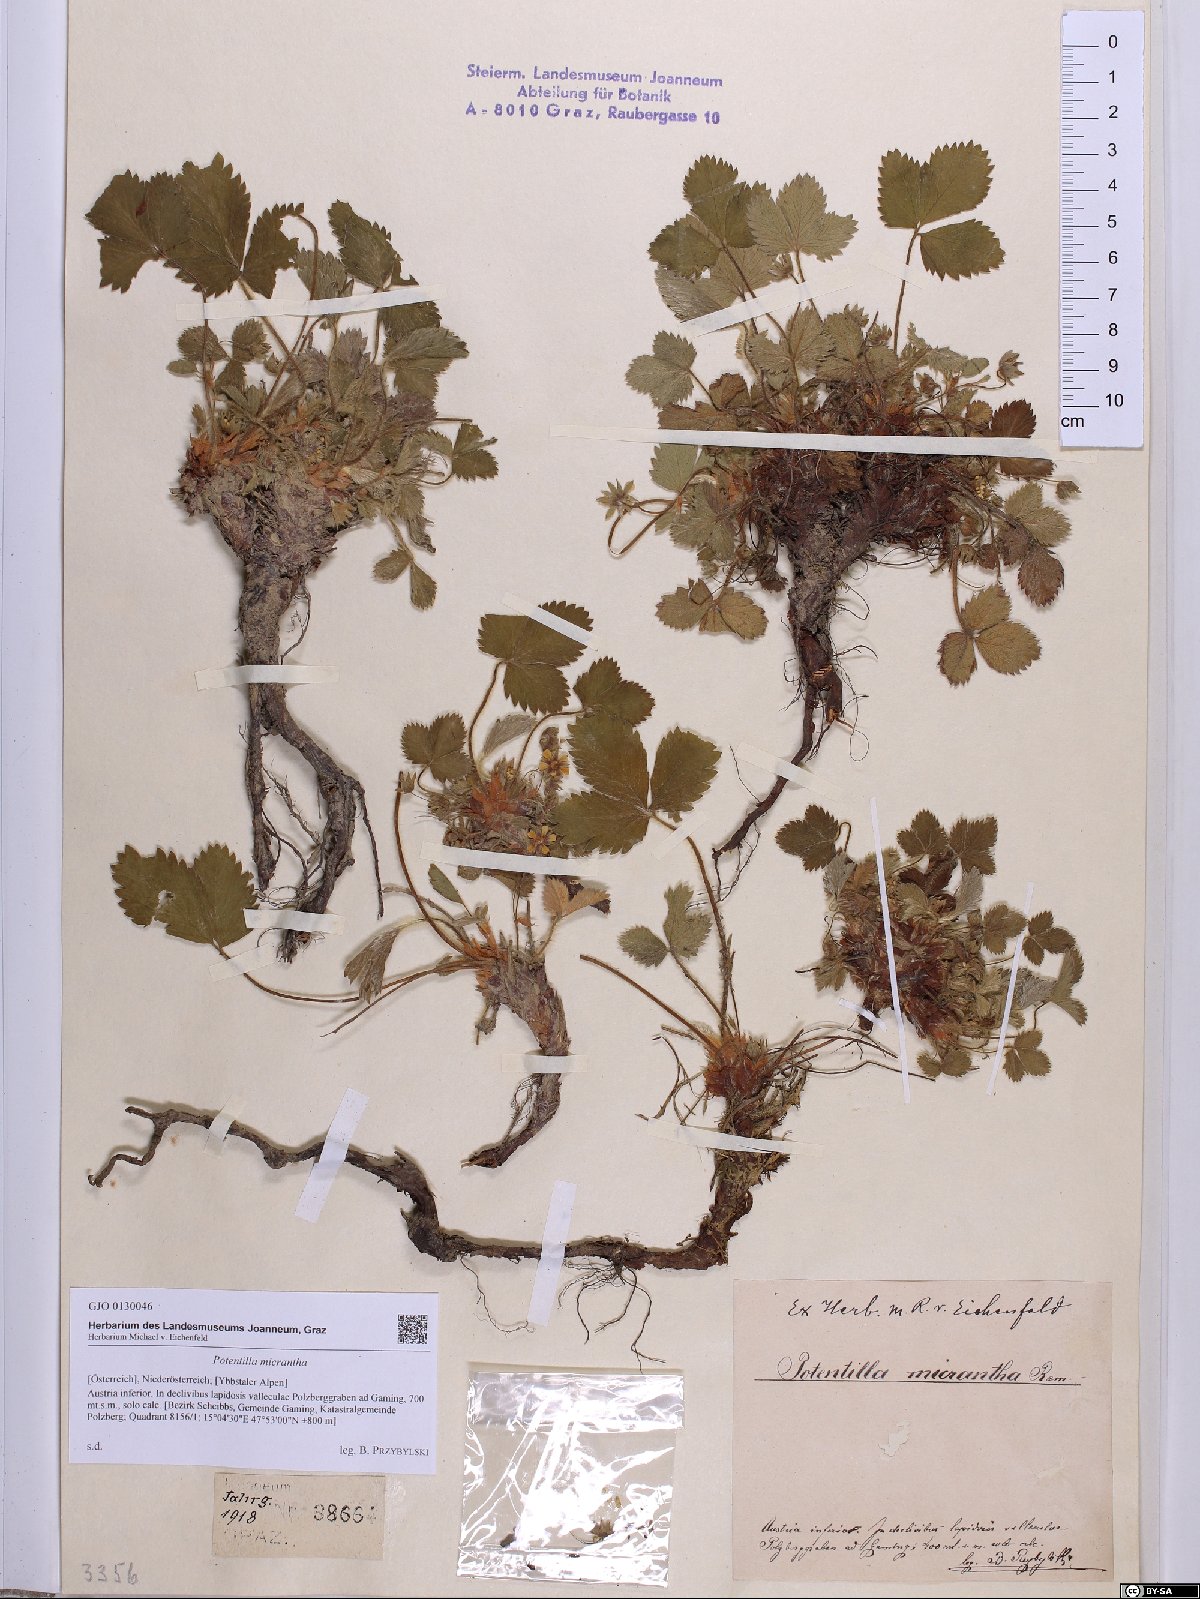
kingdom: Plantae
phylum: Tracheophyta
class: Magnoliopsida
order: Rosales
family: Rosaceae
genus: Potentilla
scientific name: Potentilla micrantha
